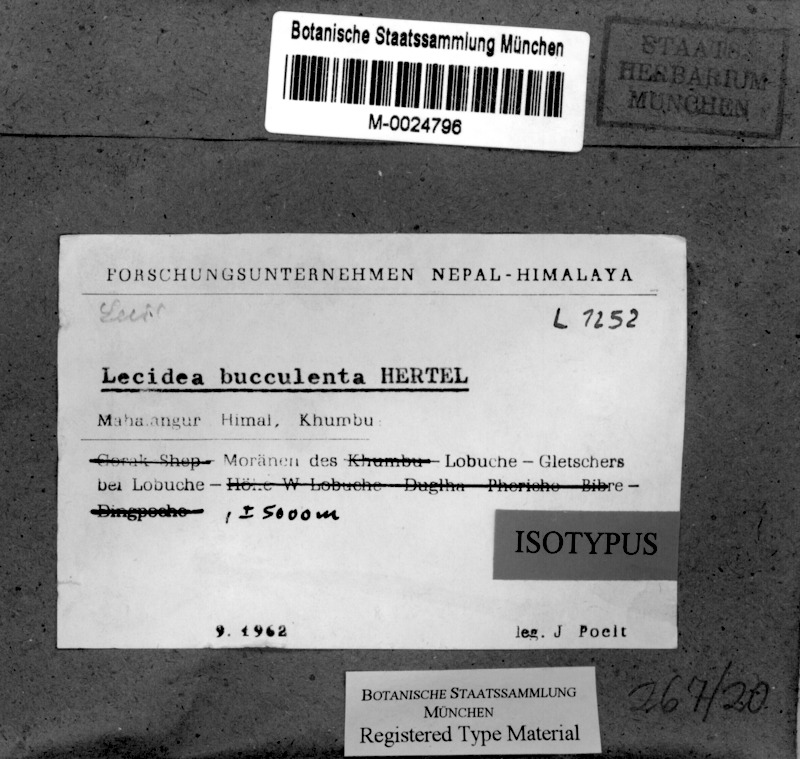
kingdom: Fungi
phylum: Ascomycota
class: Lecanoromycetes
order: Lecideales
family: Lecideaceae
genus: Lecidea
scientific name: Lecidea
